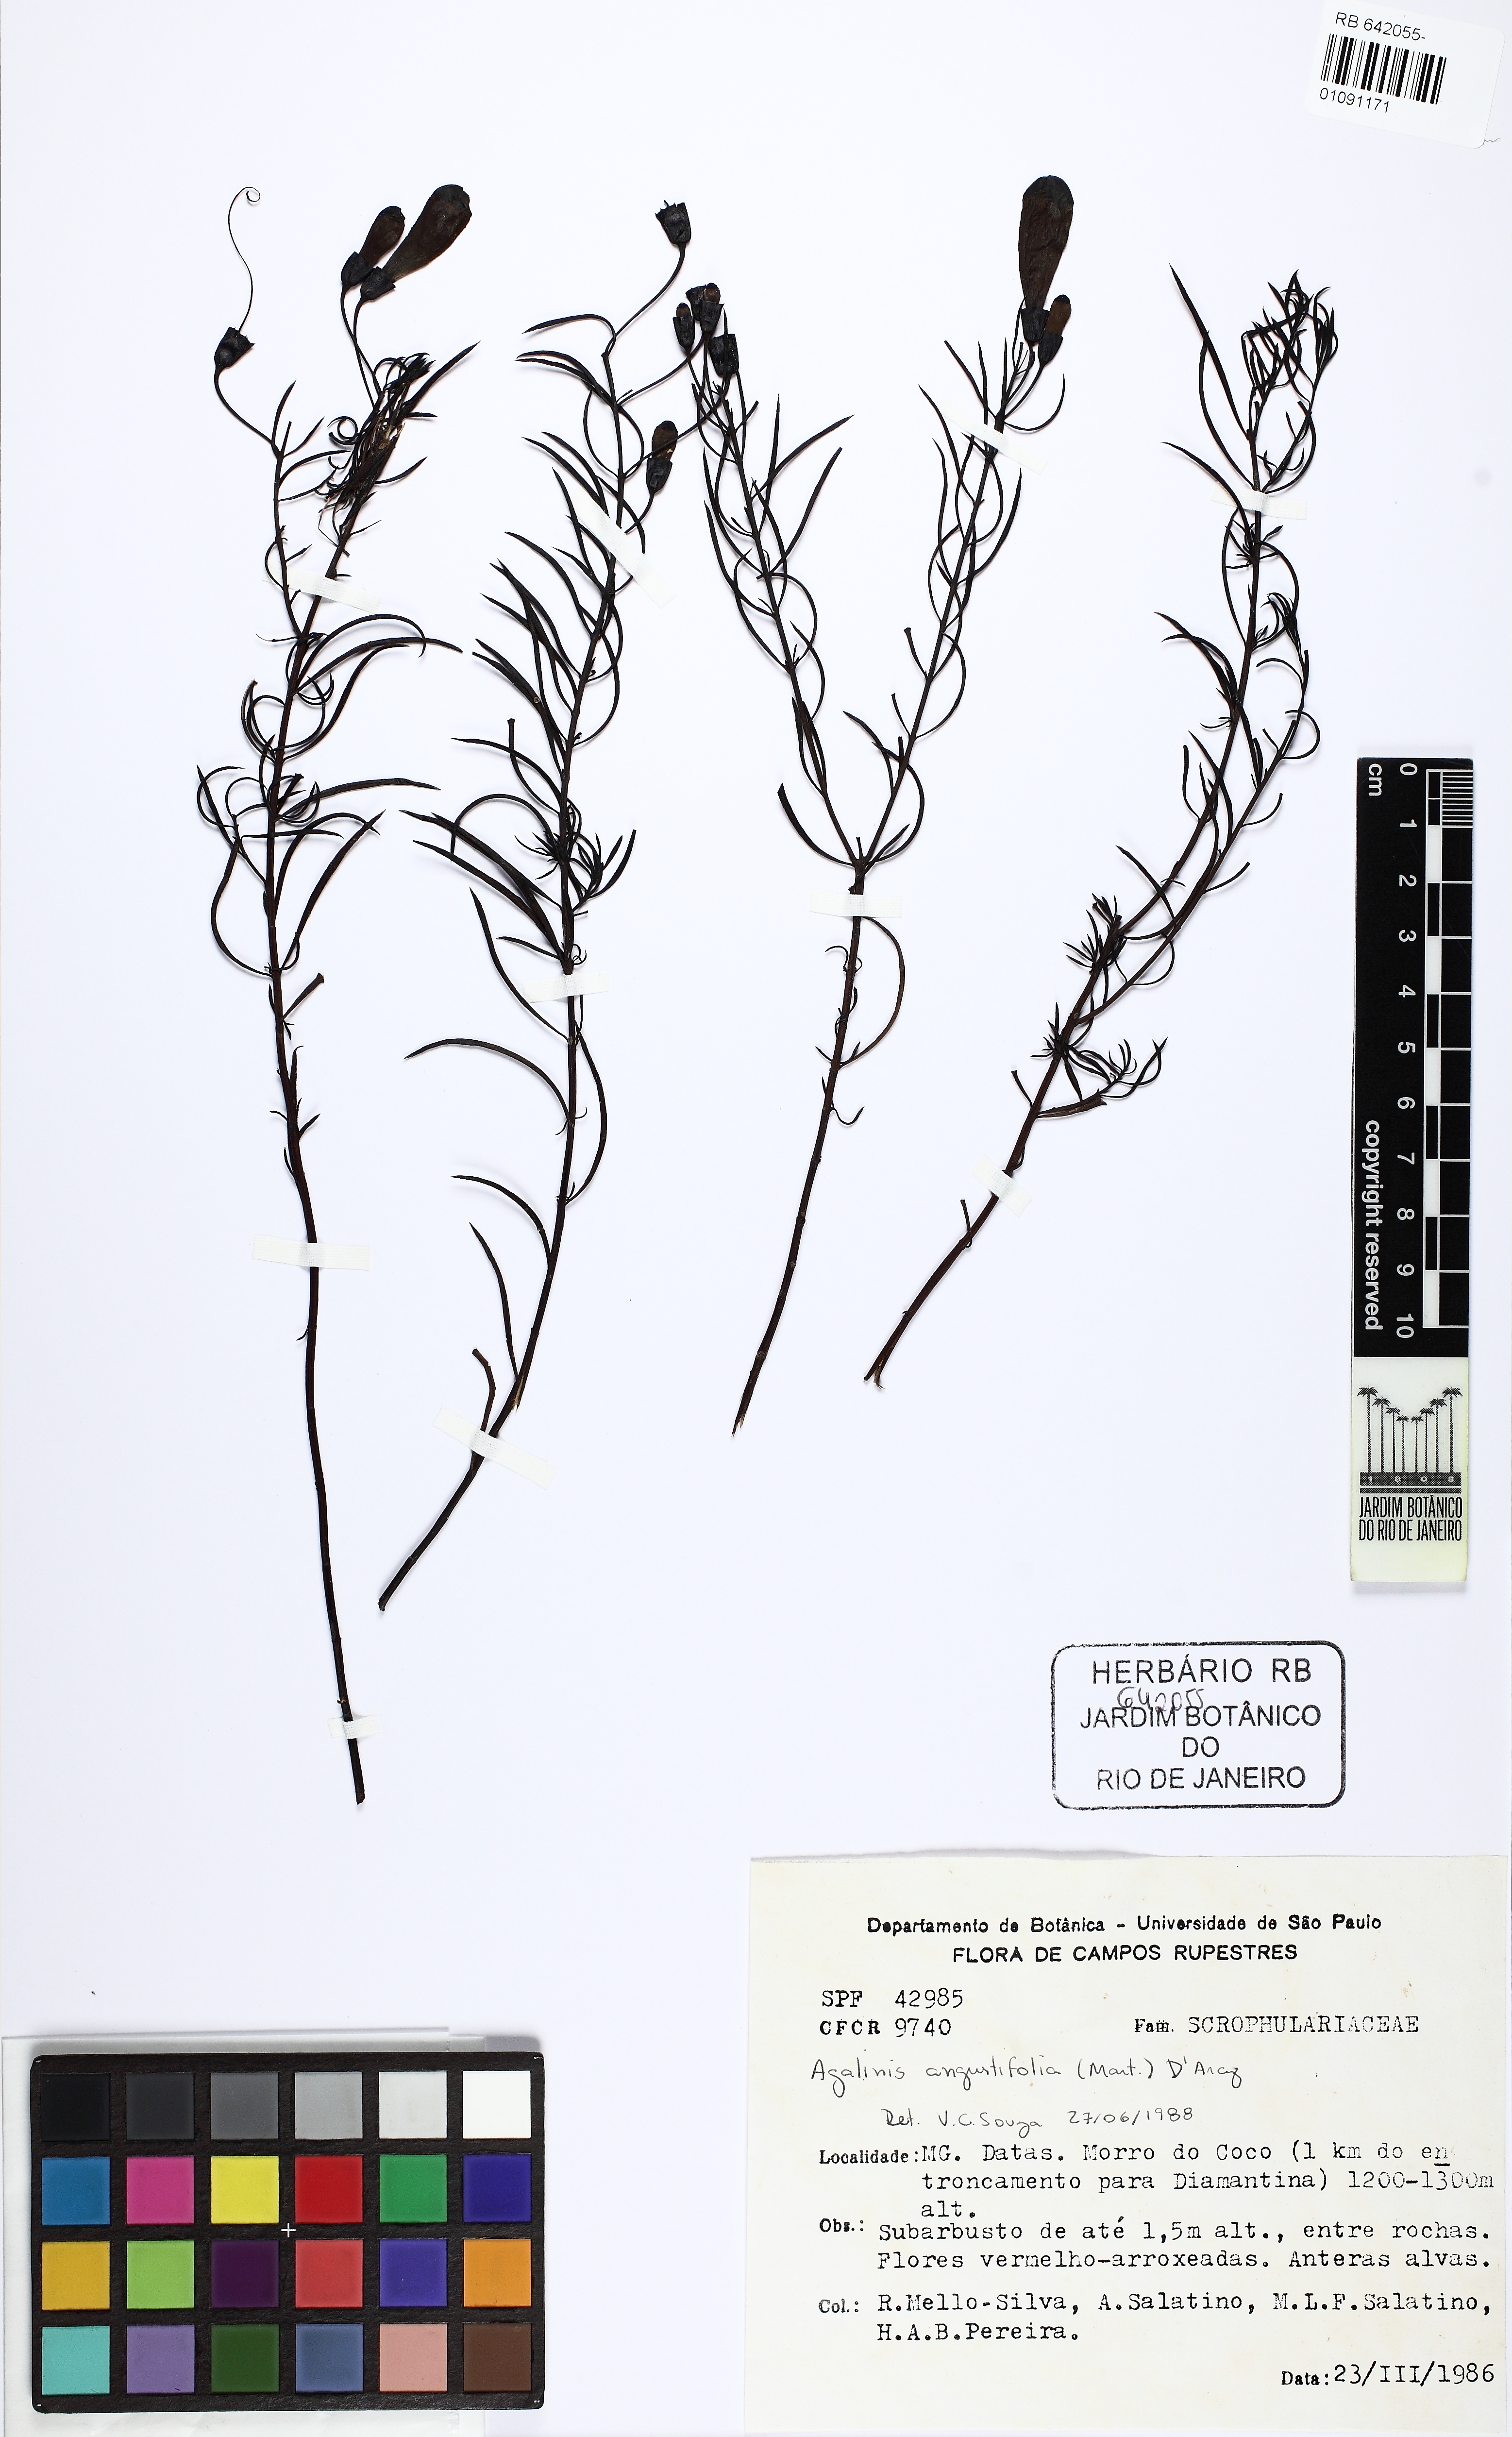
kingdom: Plantae
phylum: Tracheophyta
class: Magnoliopsida
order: Lamiales
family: Orobanchaceae
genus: Agalinis
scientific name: Agalinis angustifolia
